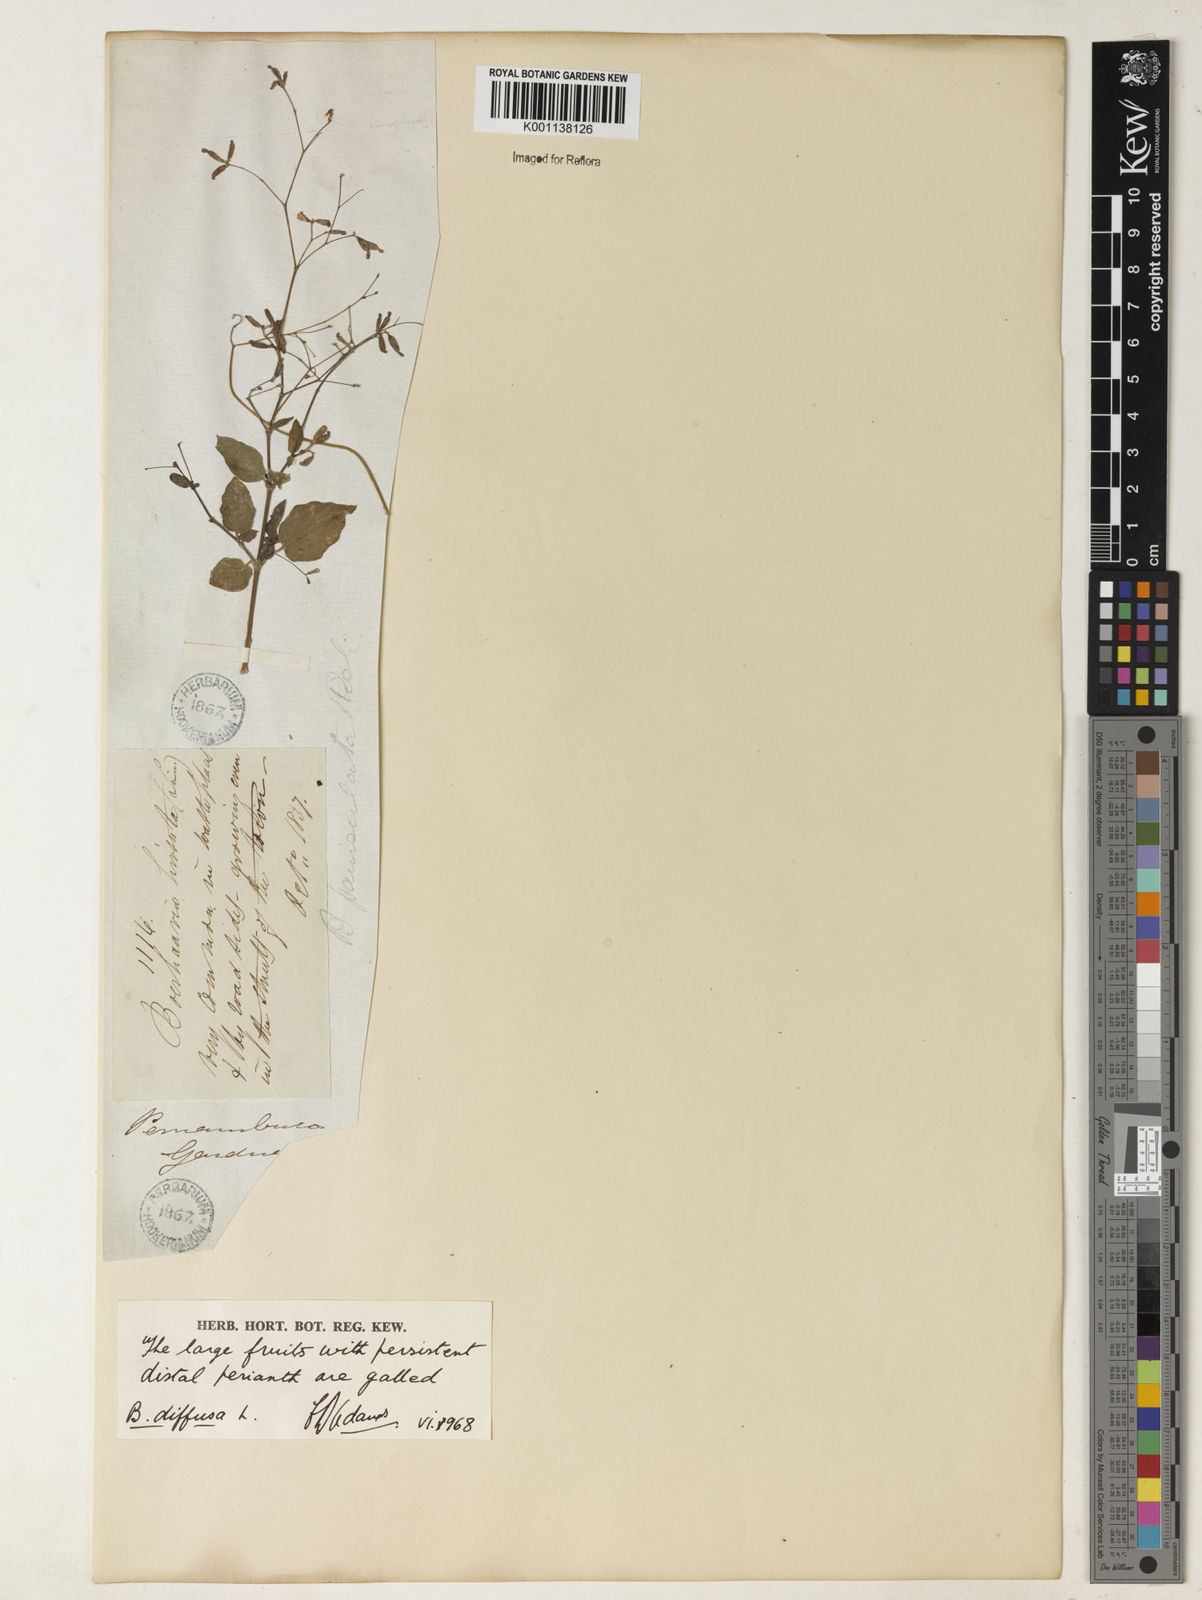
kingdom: Plantae
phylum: Tracheophyta
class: Magnoliopsida
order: Caryophyllales
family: Nyctaginaceae
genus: Boerhavia
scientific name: Boerhavia diffusa
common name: Red spiderling
